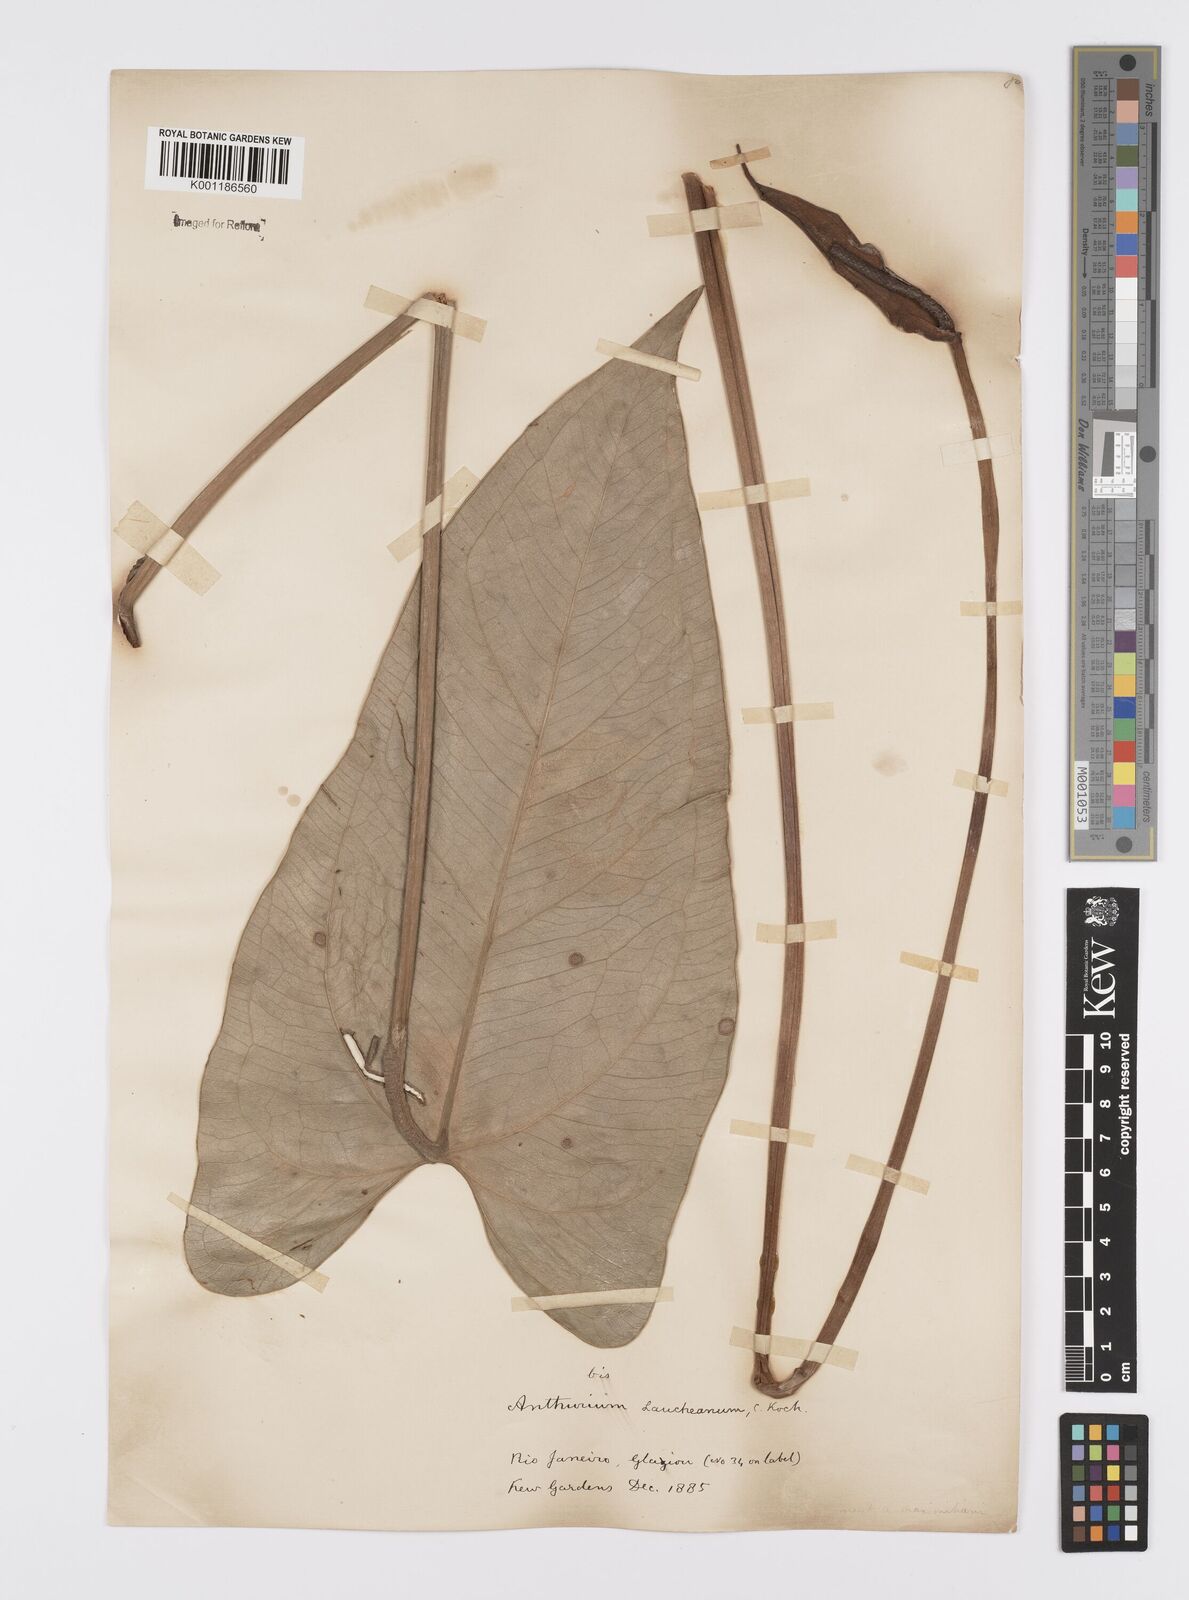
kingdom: Plantae
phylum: Tracheophyta
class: Liliopsida
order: Alismatales
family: Araceae
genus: Anthurium
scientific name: Anthurium augustinum
